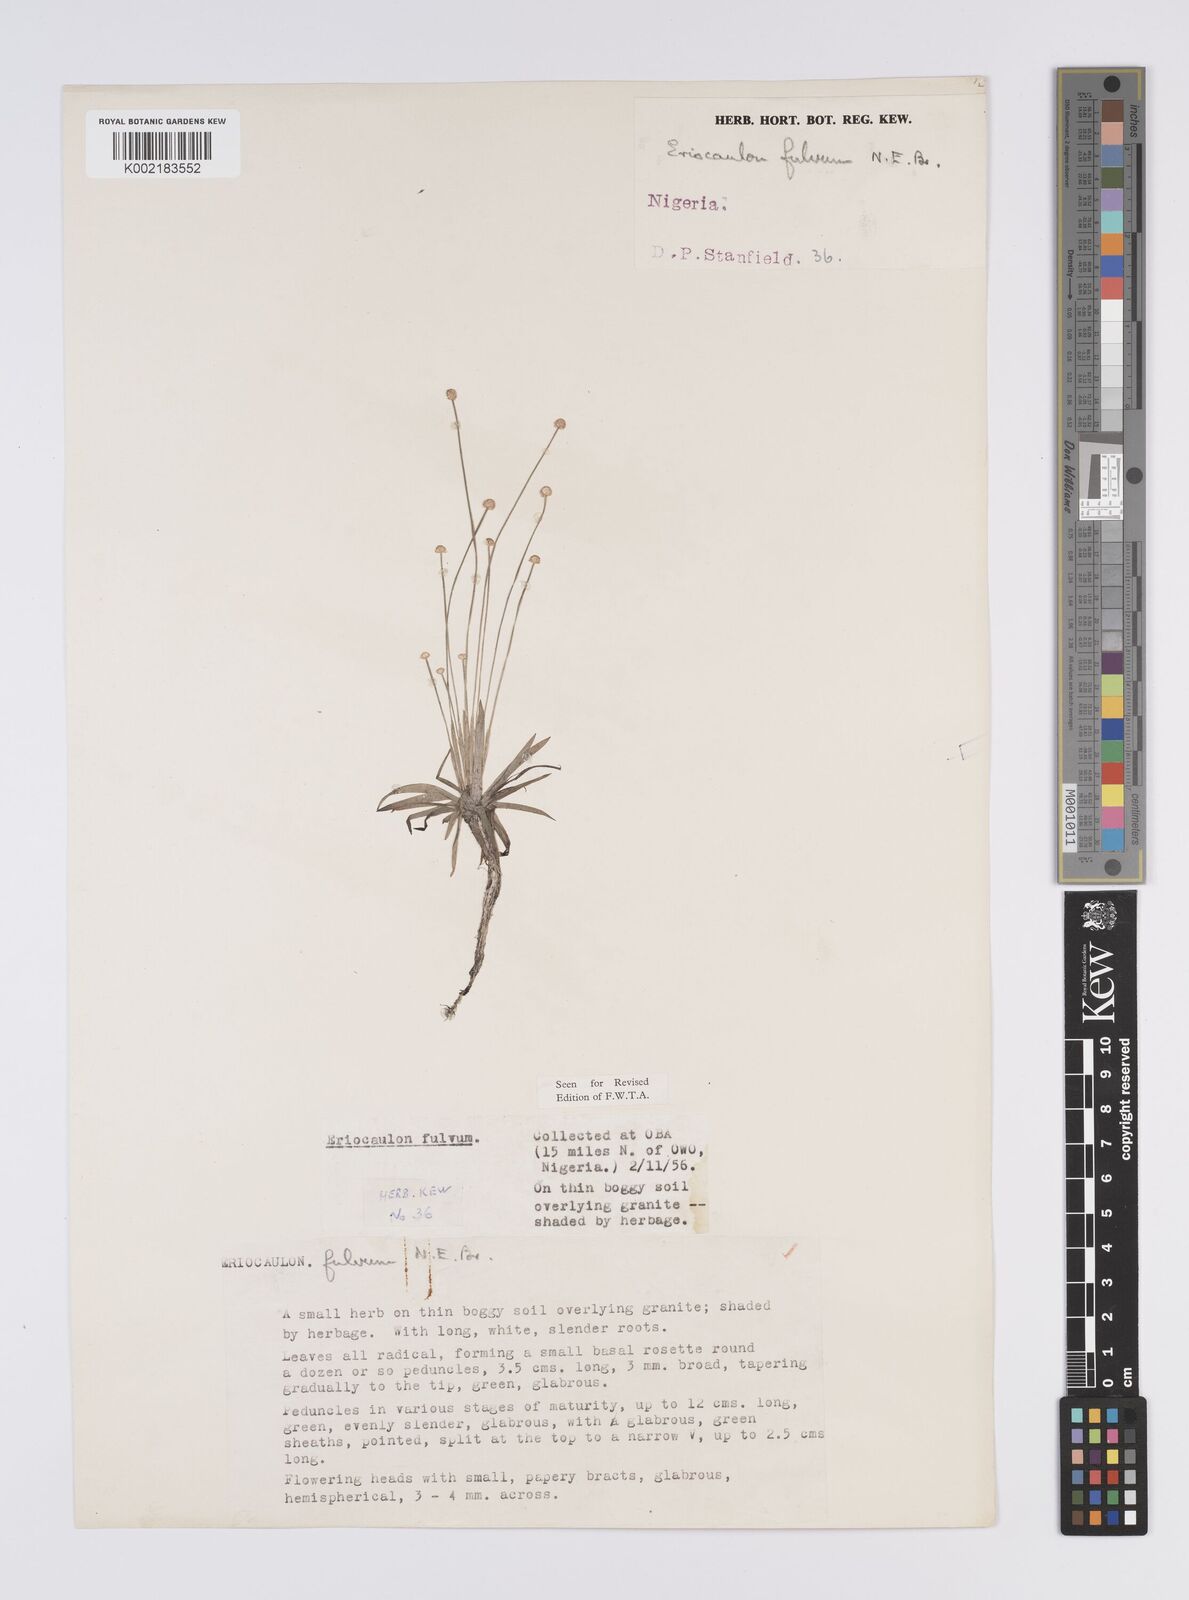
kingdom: Plantae
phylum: Tracheophyta
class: Liliopsida
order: Poales
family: Eriocaulaceae
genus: Eriocaulon
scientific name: Eriocaulon fulvum
